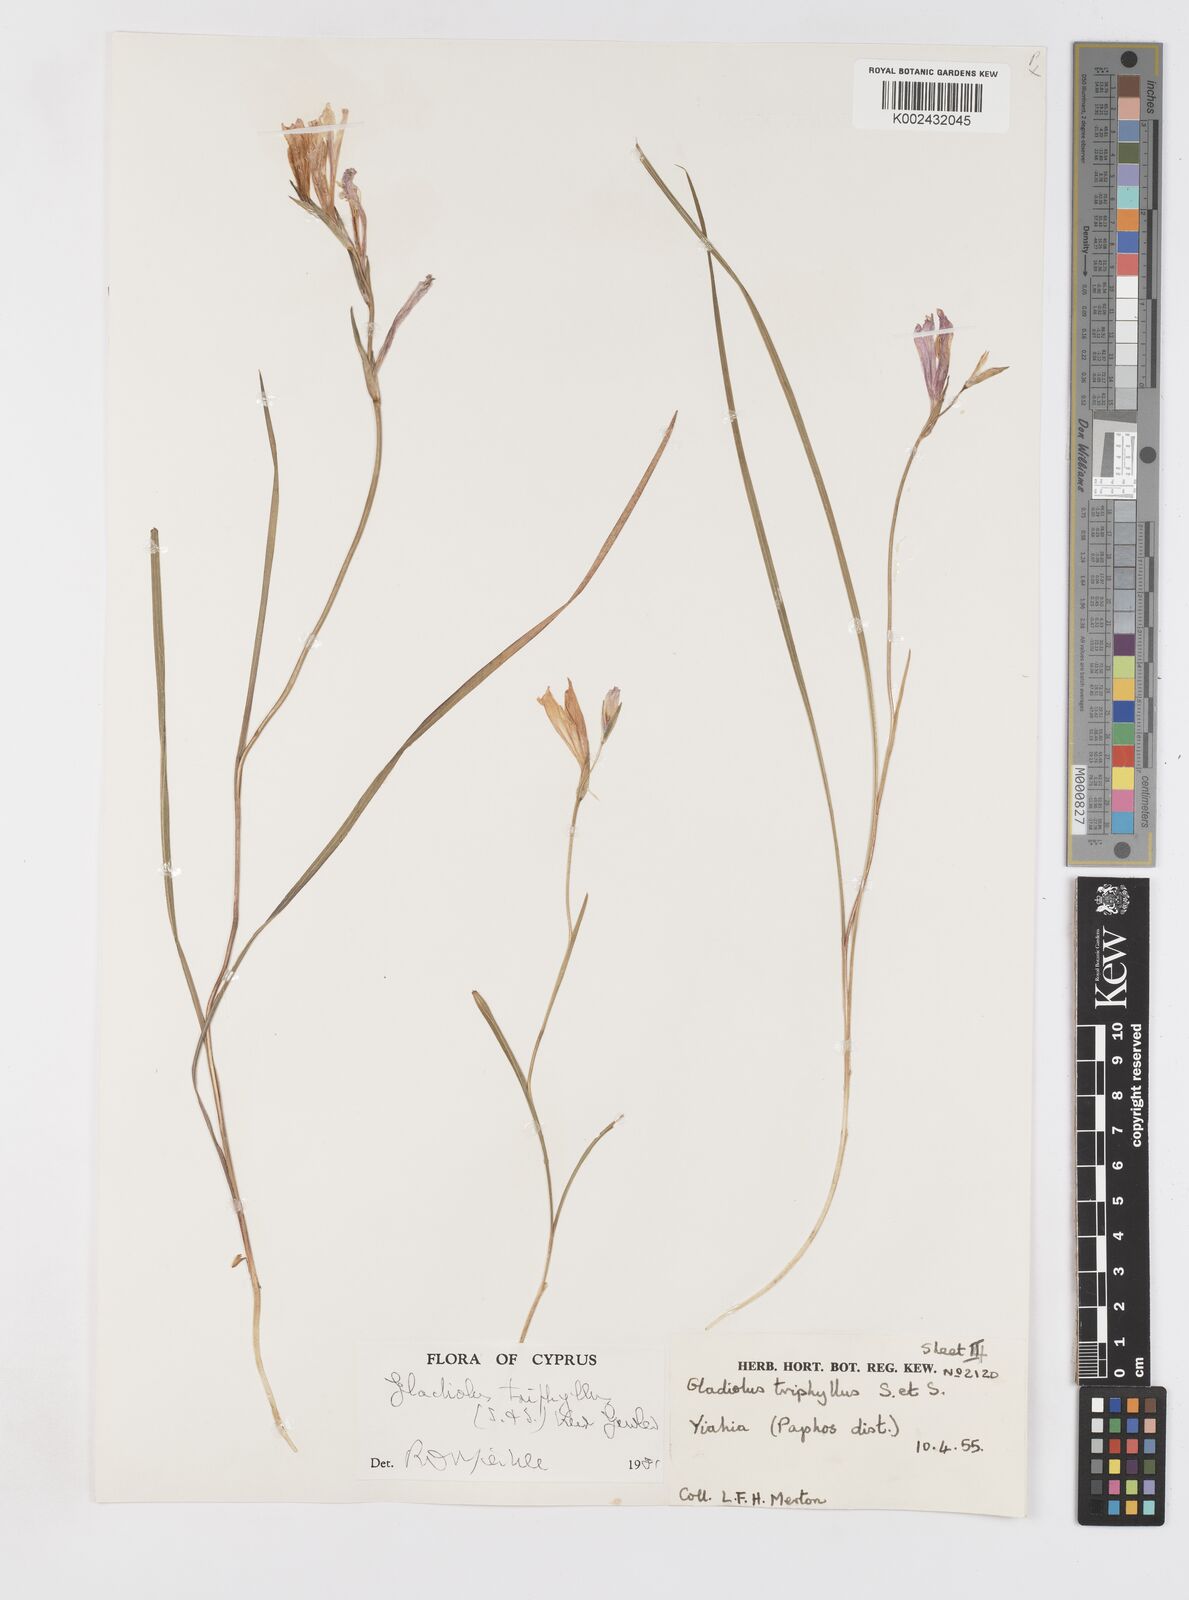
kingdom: Plantae
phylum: Tracheophyta
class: Liliopsida
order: Asparagales
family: Iridaceae
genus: Gladiolus
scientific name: Gladiolus triphyllus
